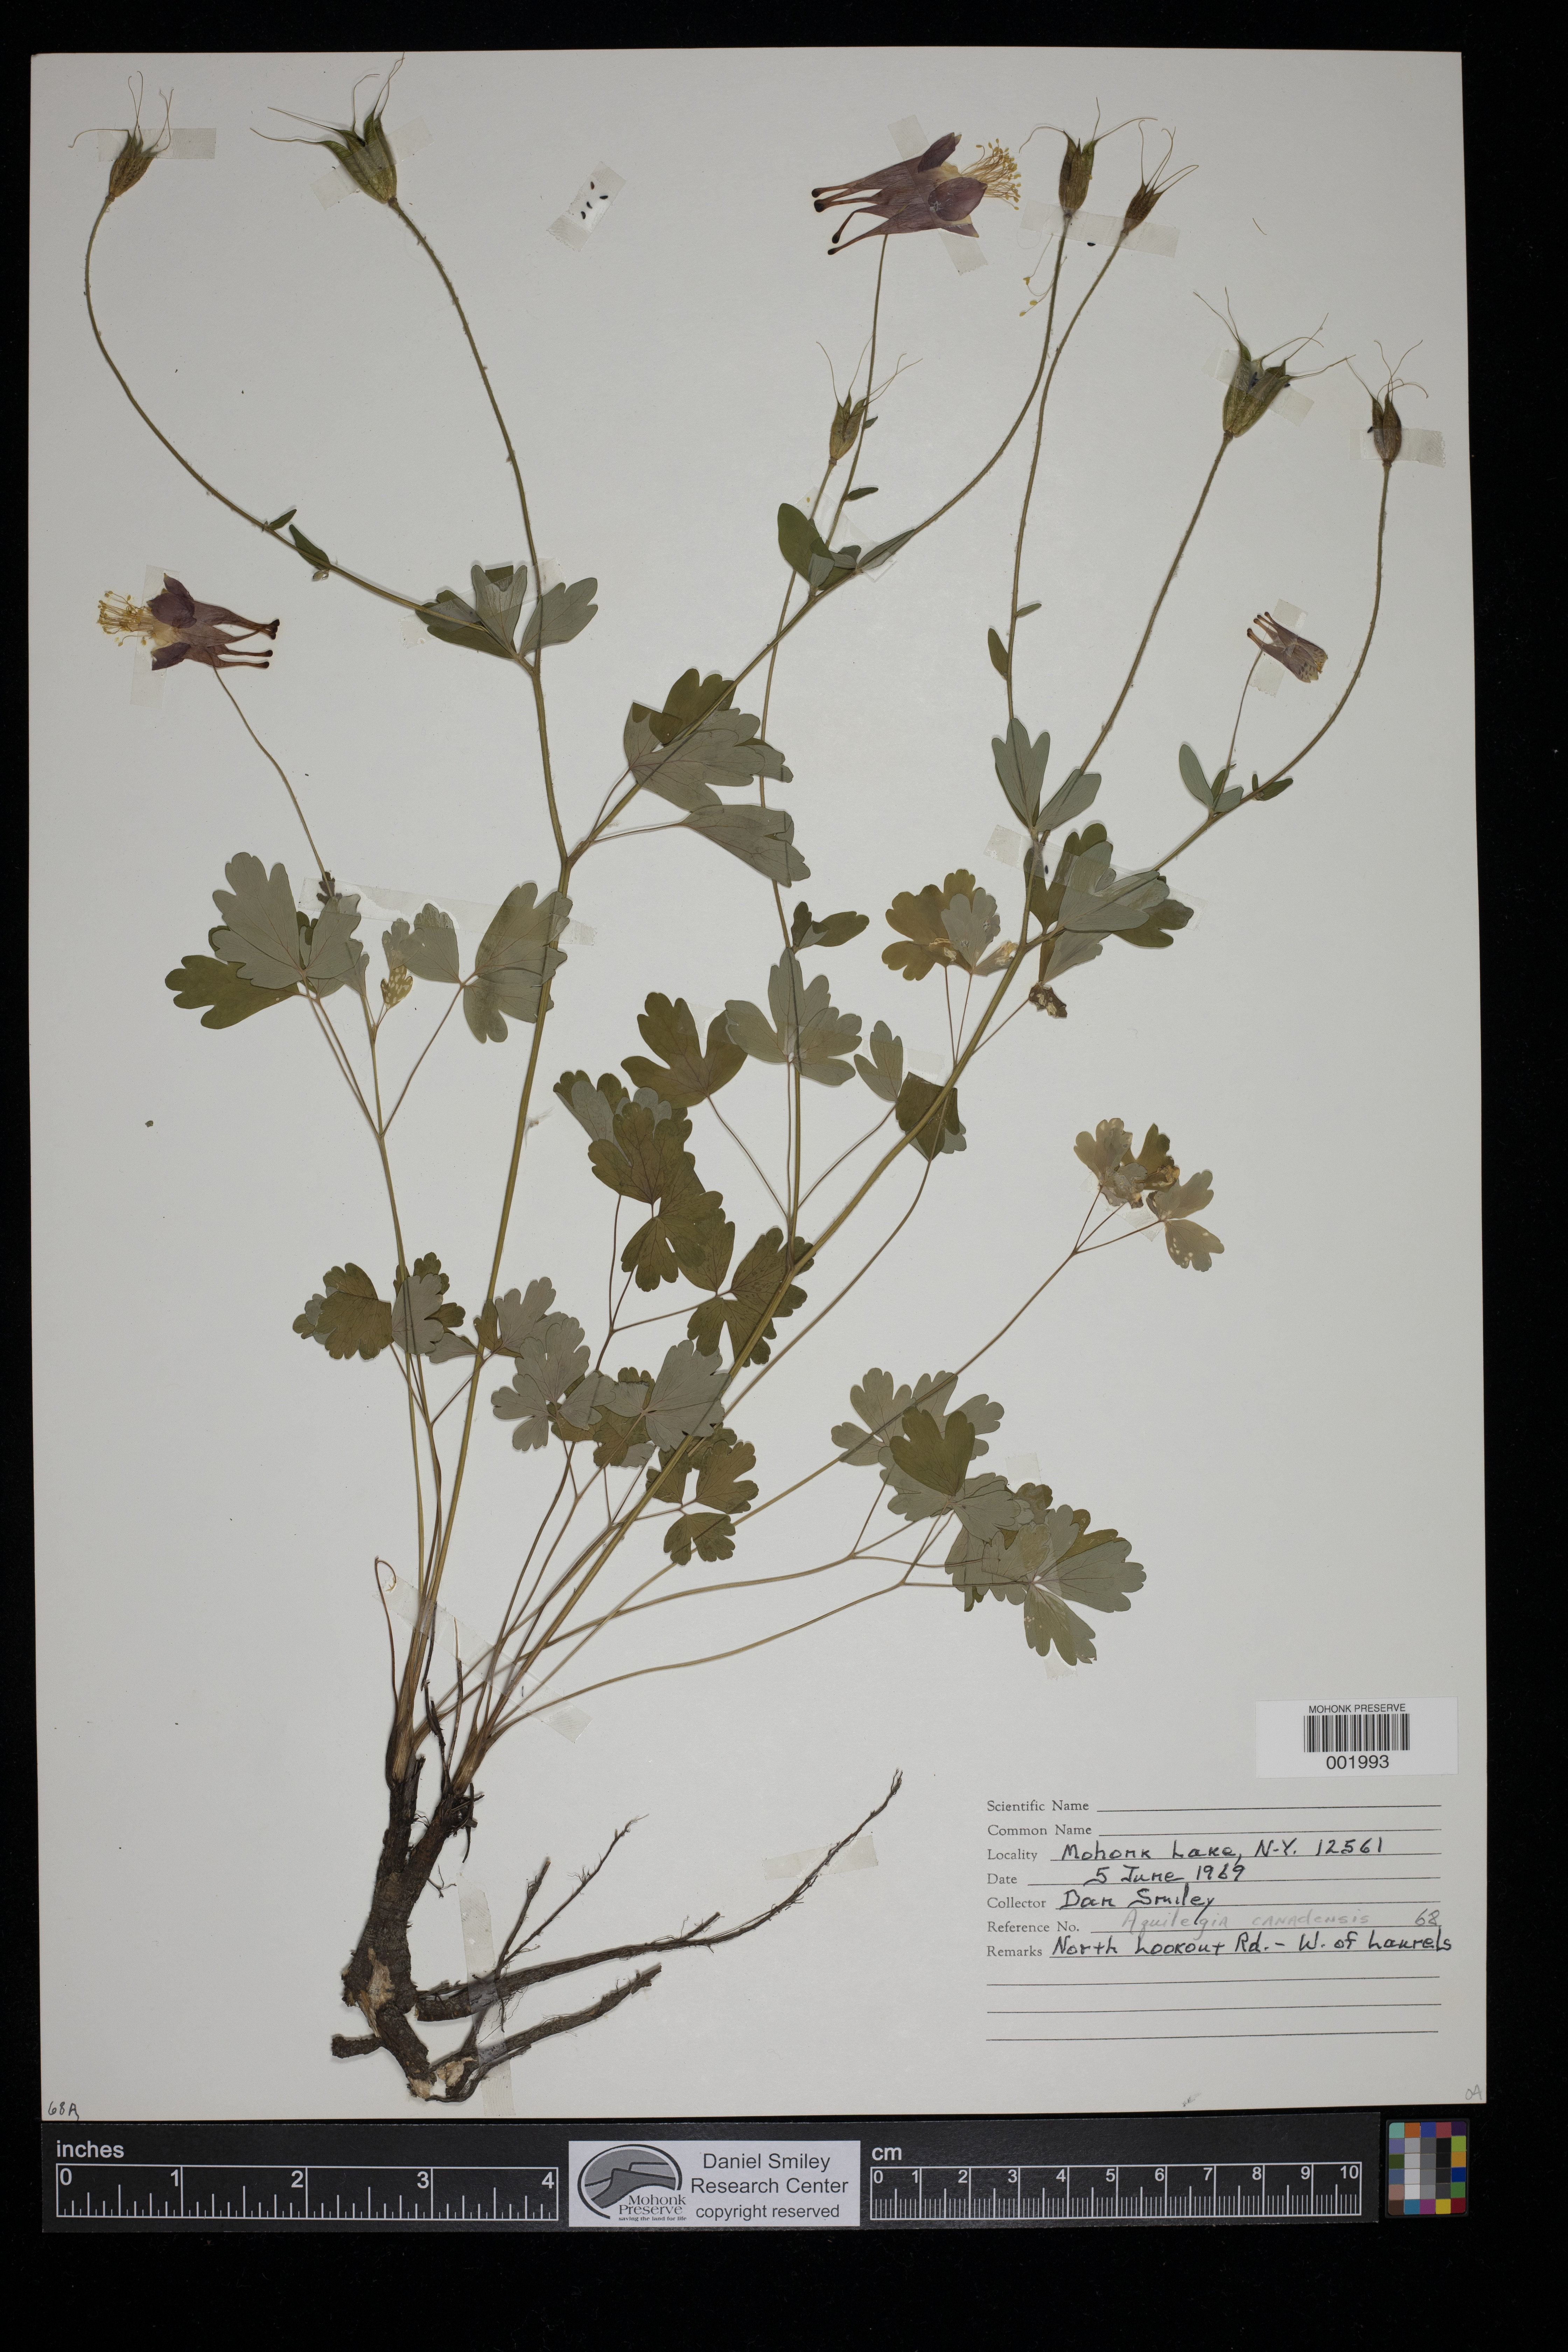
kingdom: Plantae
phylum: Tracheophyta
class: Magnoliopsida
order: Ranunculales
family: Ranunculaceae
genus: Aquilegia
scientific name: Aquilegia canadensis
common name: American columbine
